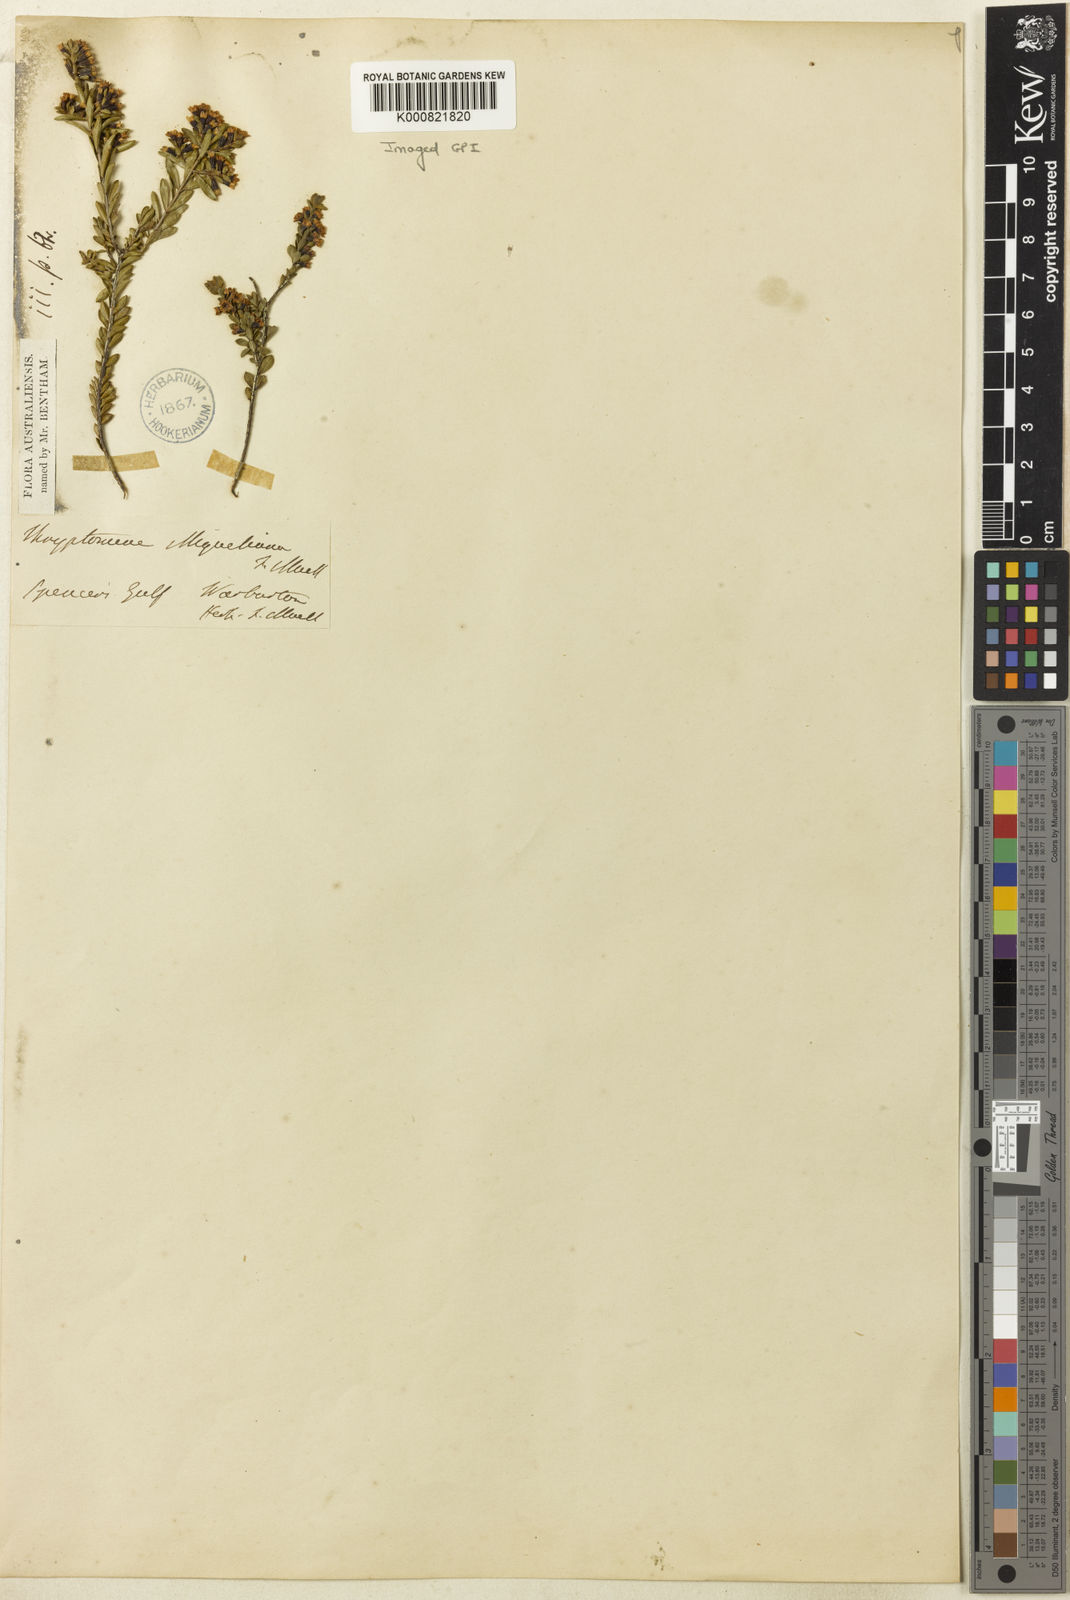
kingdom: Plantae
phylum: Tracheophyta
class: Magnoliopsida
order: Myrtales
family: Myrtaceae
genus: Thryptomene
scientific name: Thryptomene saxicola
